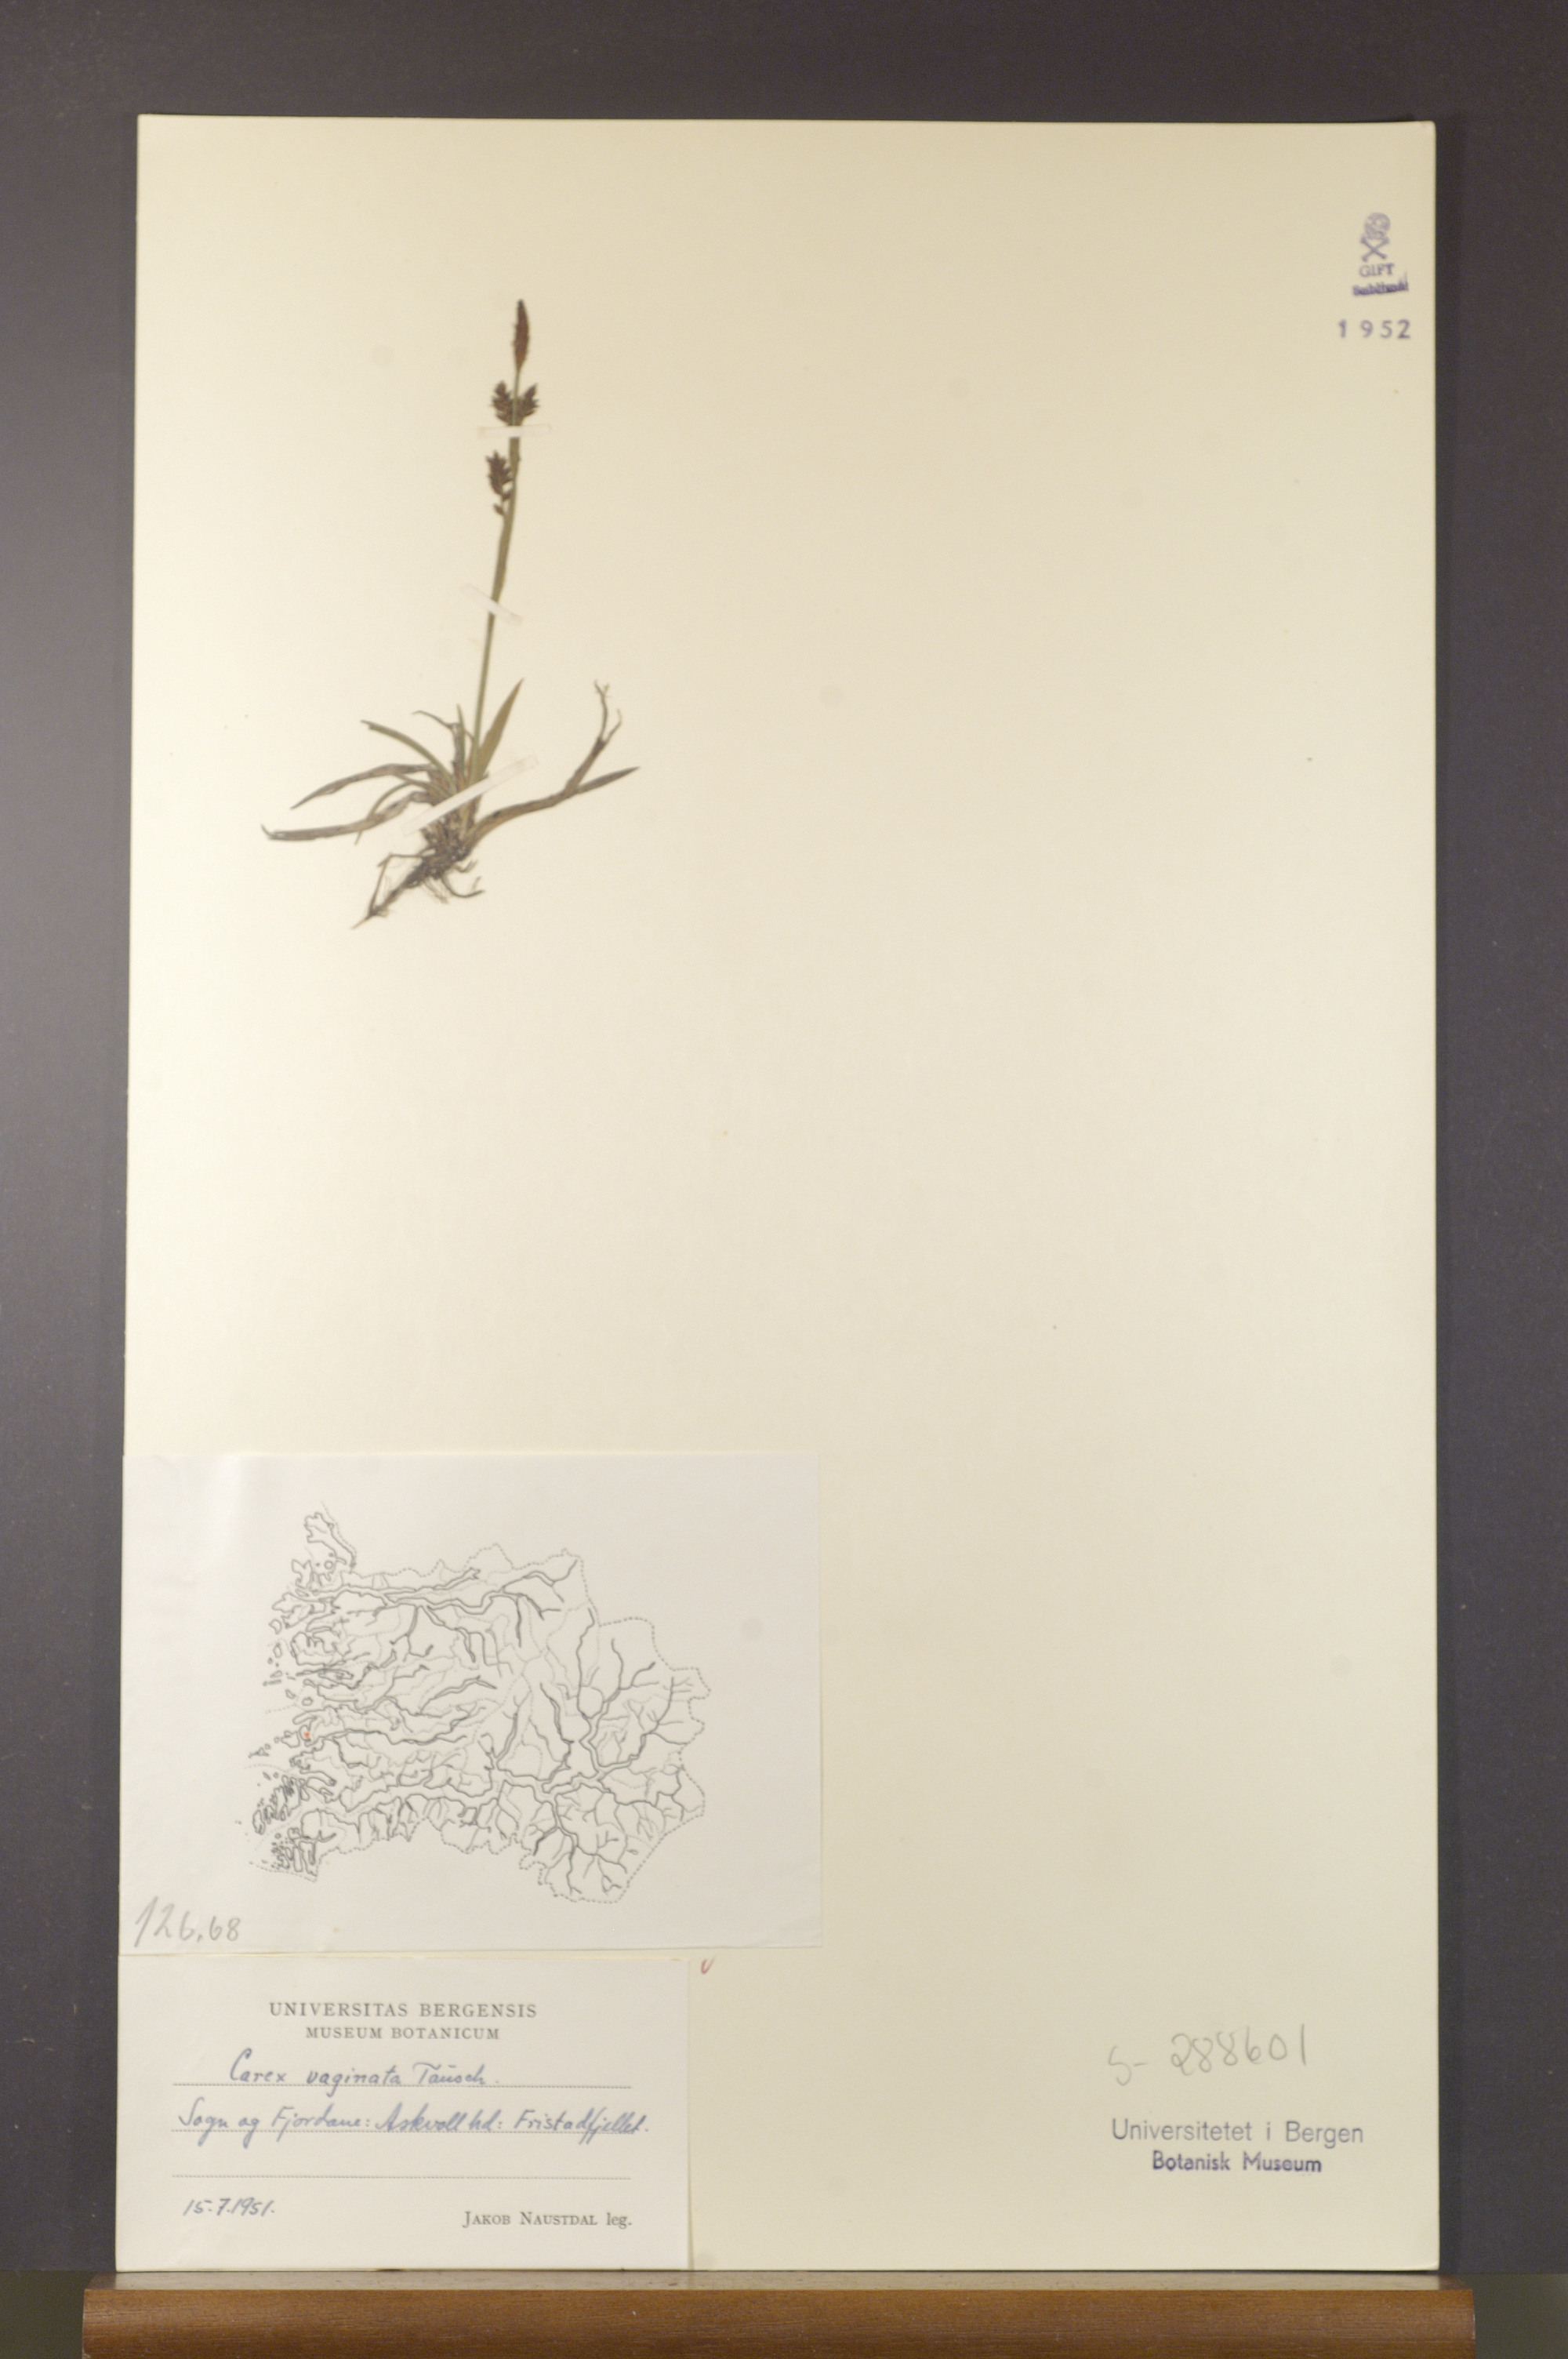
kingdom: Plantae
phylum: Tracheophyta
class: Liliopsida
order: Poales
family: Cyperaceae
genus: Carex
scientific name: Carex vaginata
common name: Sheathed sedge
